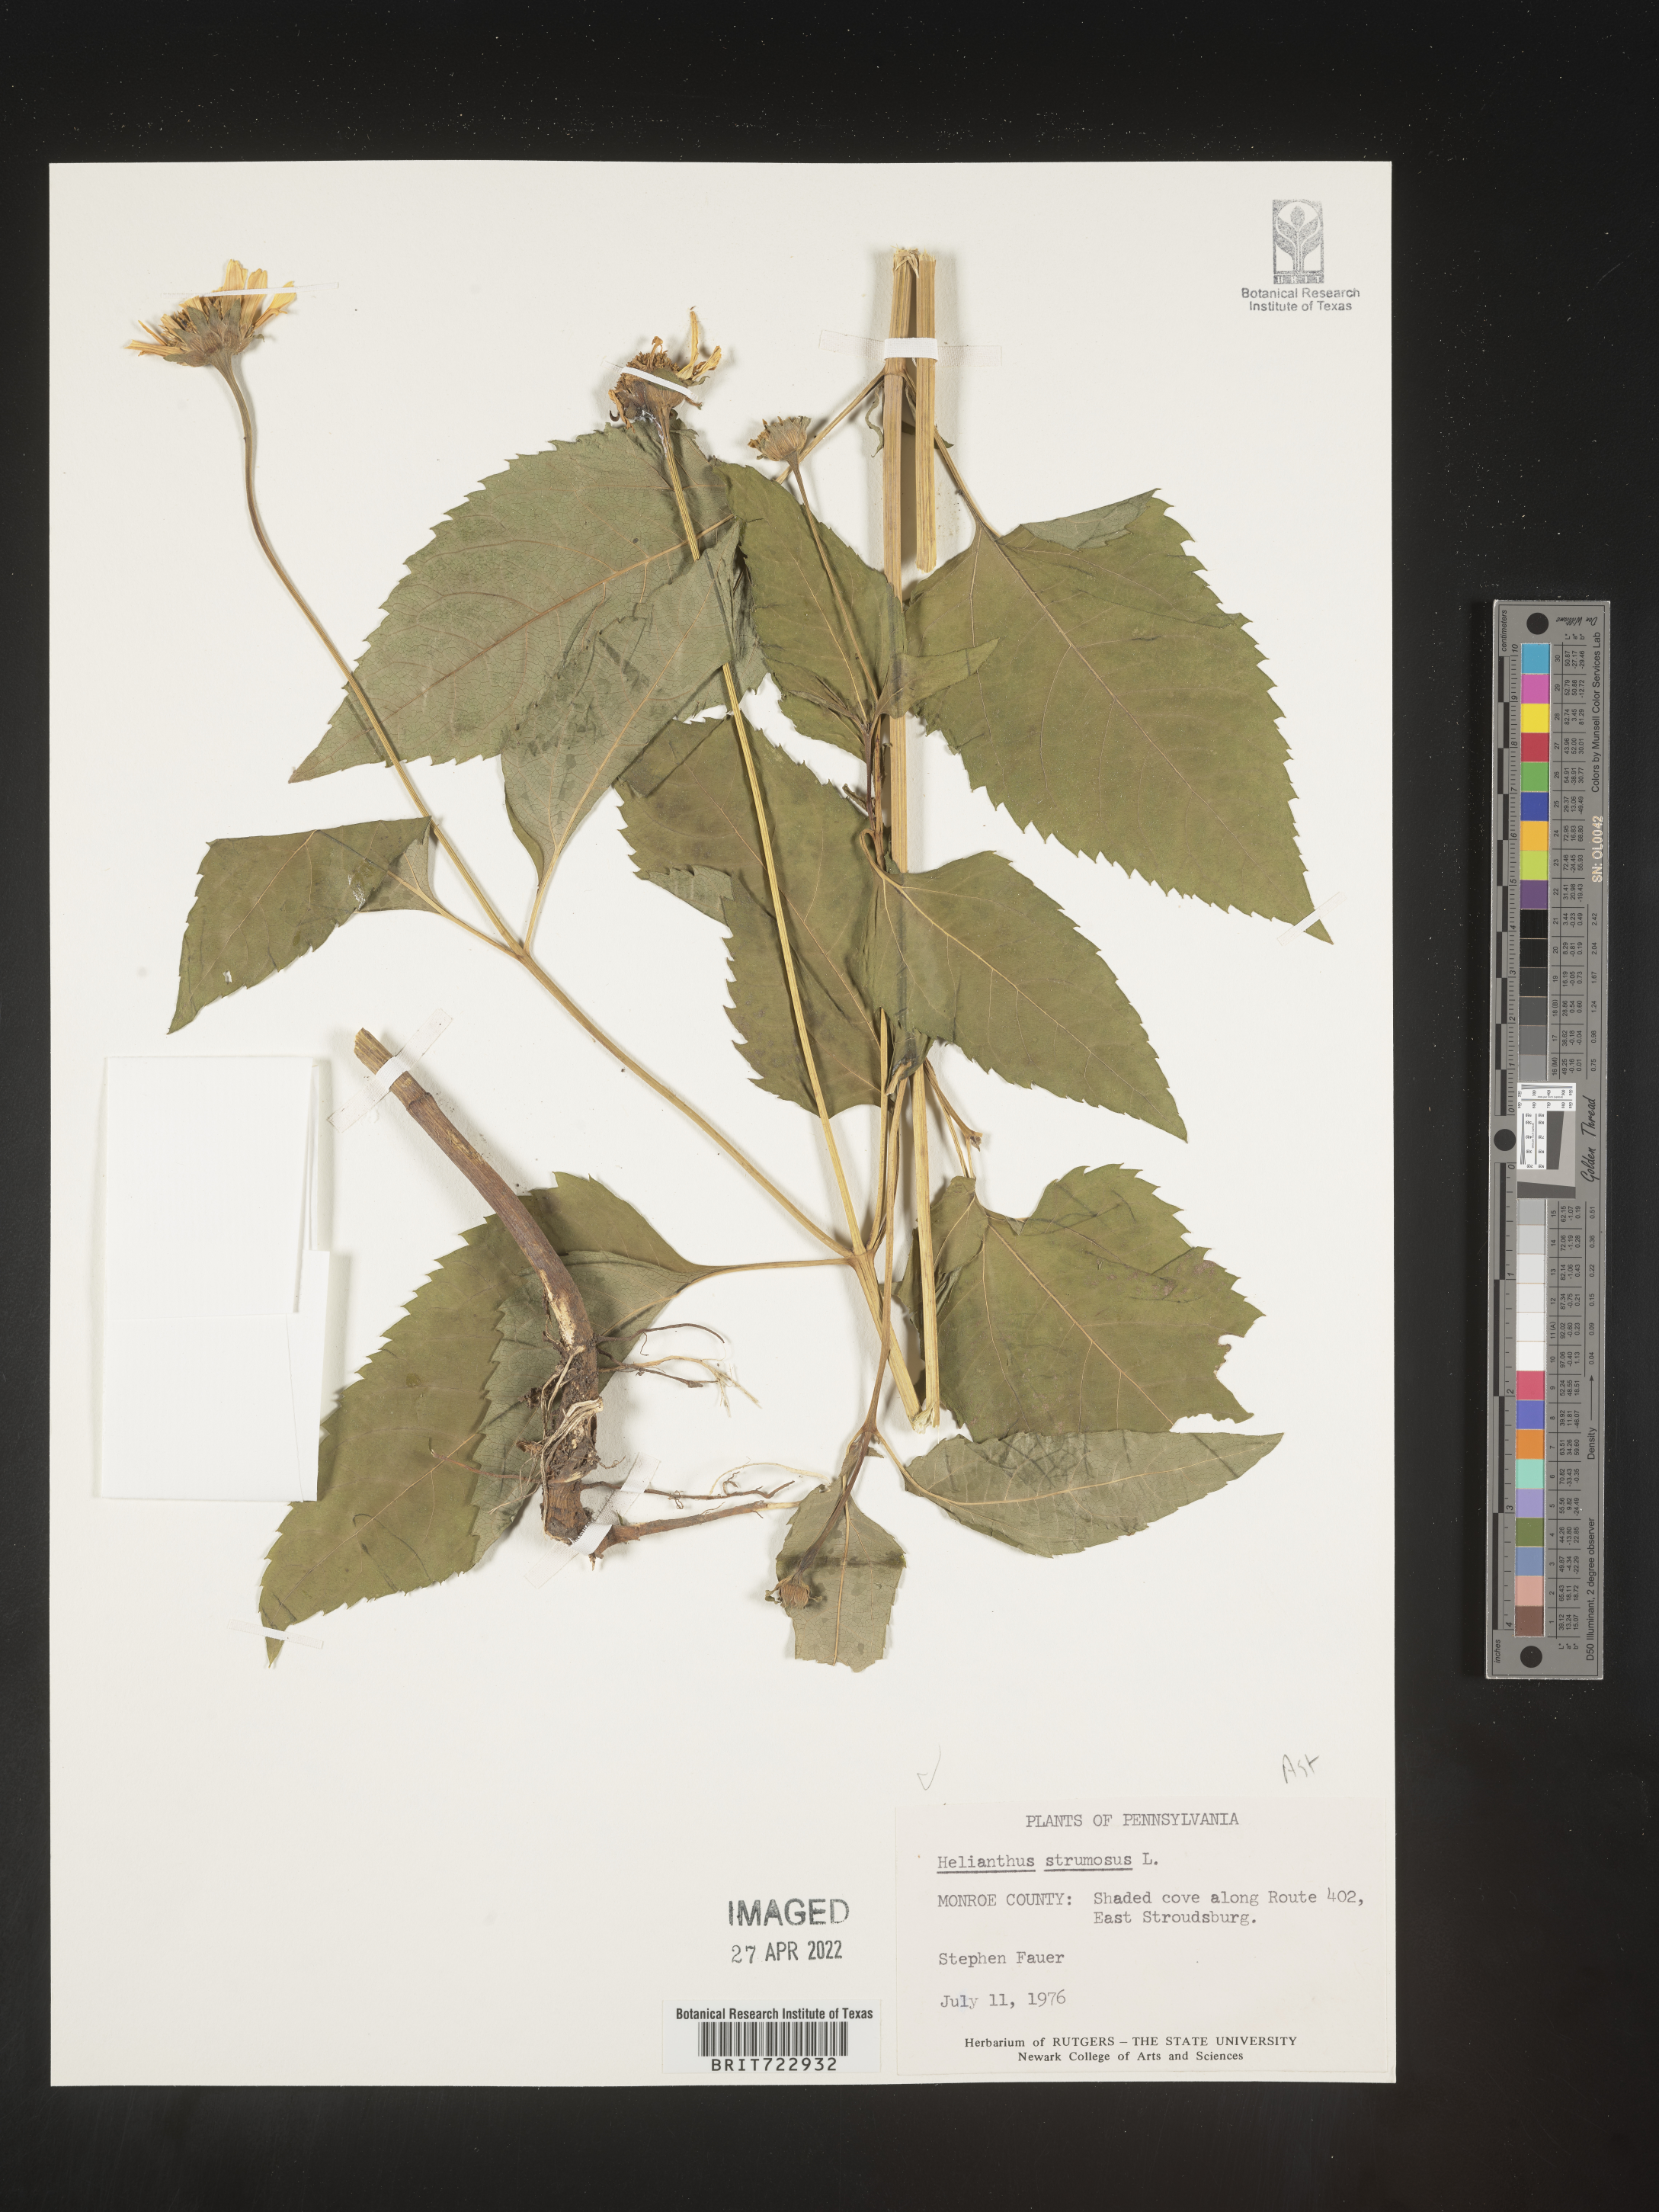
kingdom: Plantae
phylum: Tracheophyta
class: Magnoliopsida
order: Asterales
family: Asteraceae
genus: Helianthus
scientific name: Helianthus strumosus
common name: Pale-leaved sunflower
